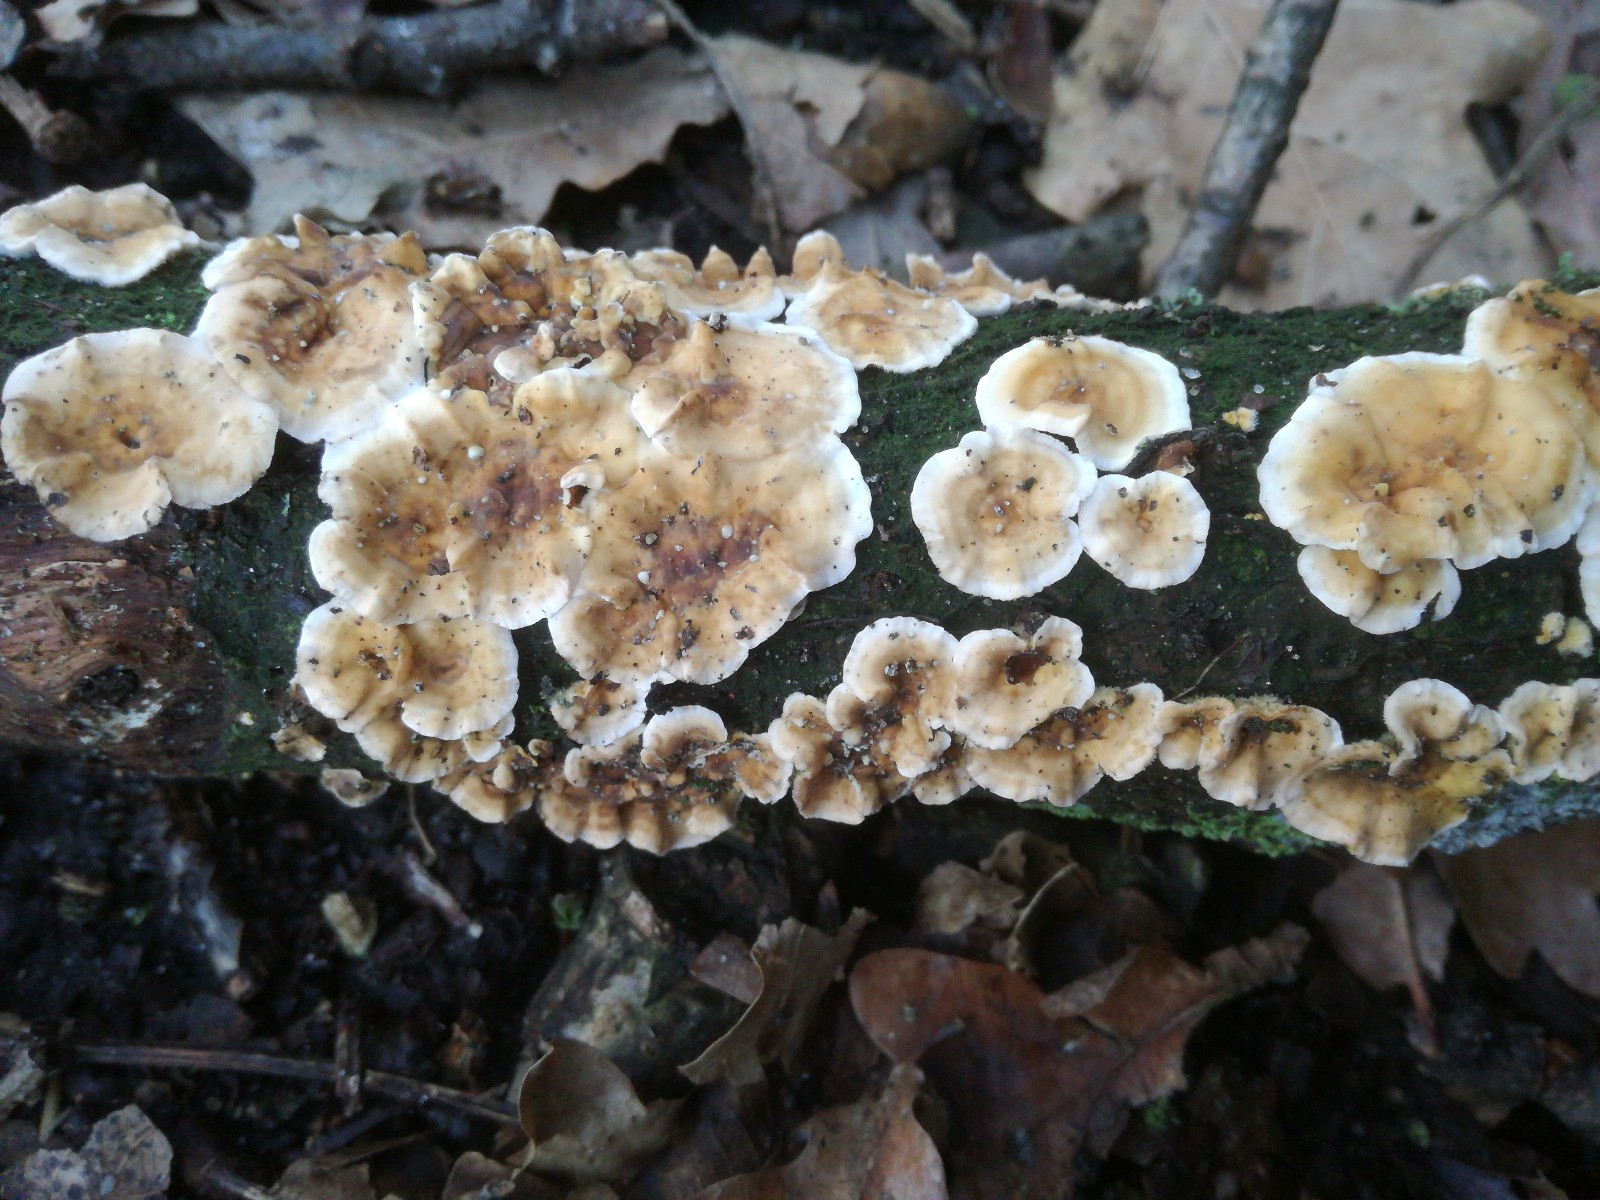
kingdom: Fungi
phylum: Basidiomycota
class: Agaricomycetes
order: Russulales
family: Stereaceae
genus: Stereum
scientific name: Stereum complicatum
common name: liden lædersvamp
